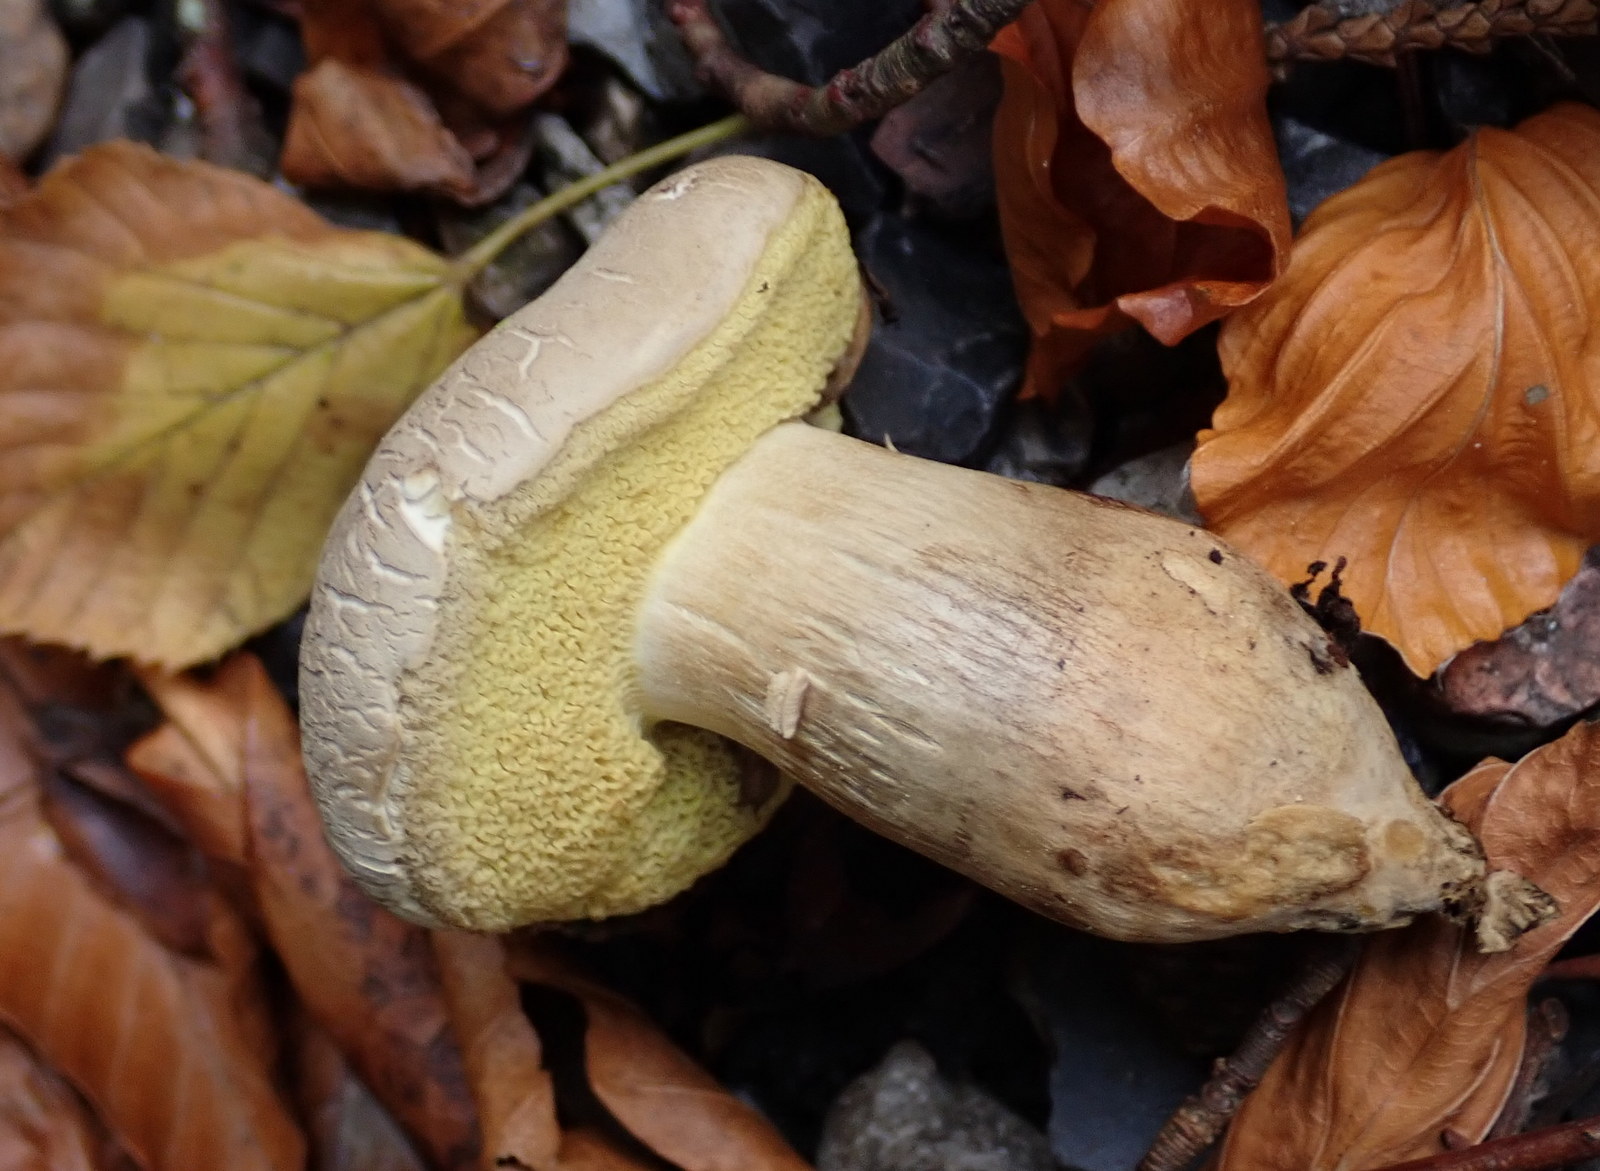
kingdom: Fungi
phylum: Basidiomycota
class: Agaricomycetes
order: Boletales
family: Boletaceae
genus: Butyriboletus
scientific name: Butyriboletus appendiculatus
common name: tenstokket rørhat
